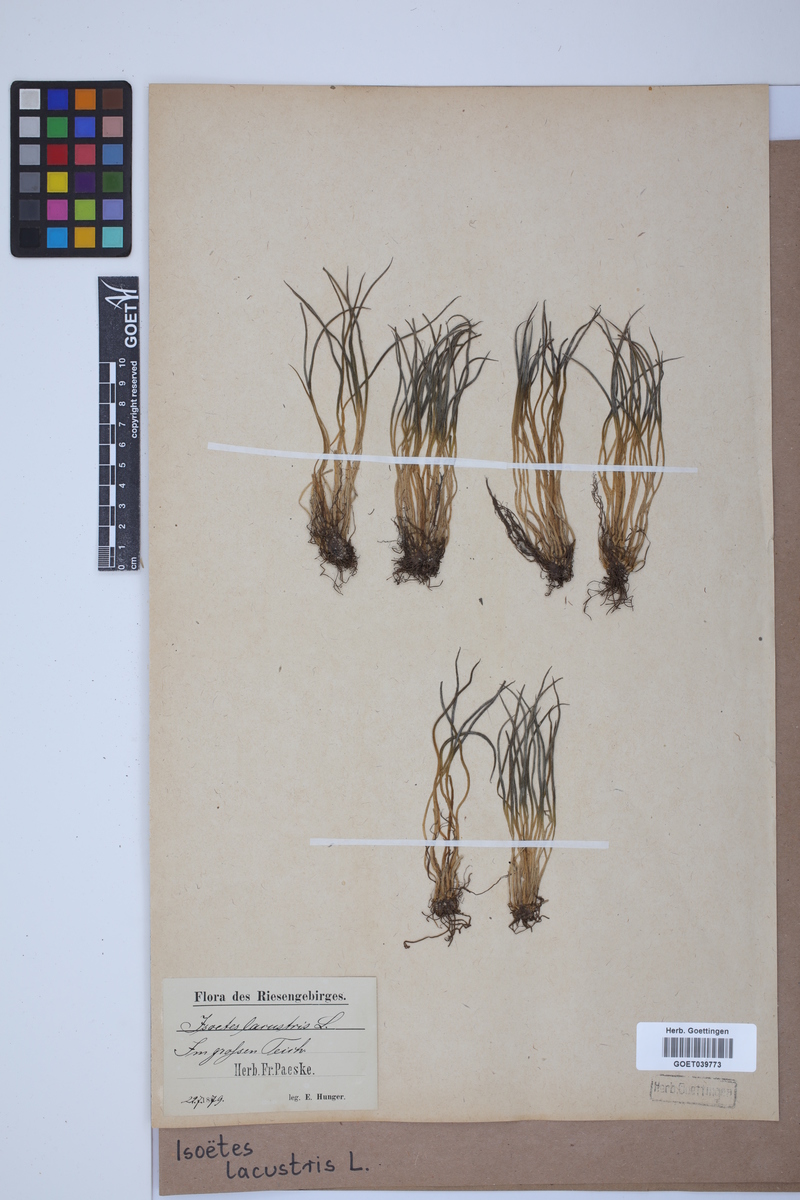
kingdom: Plantae
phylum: Tracheophyta
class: Lycopodiopsida
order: Isoetales
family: Isoetaceae
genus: Isoetes
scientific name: Isoetes lacustris
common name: Common quillwort
